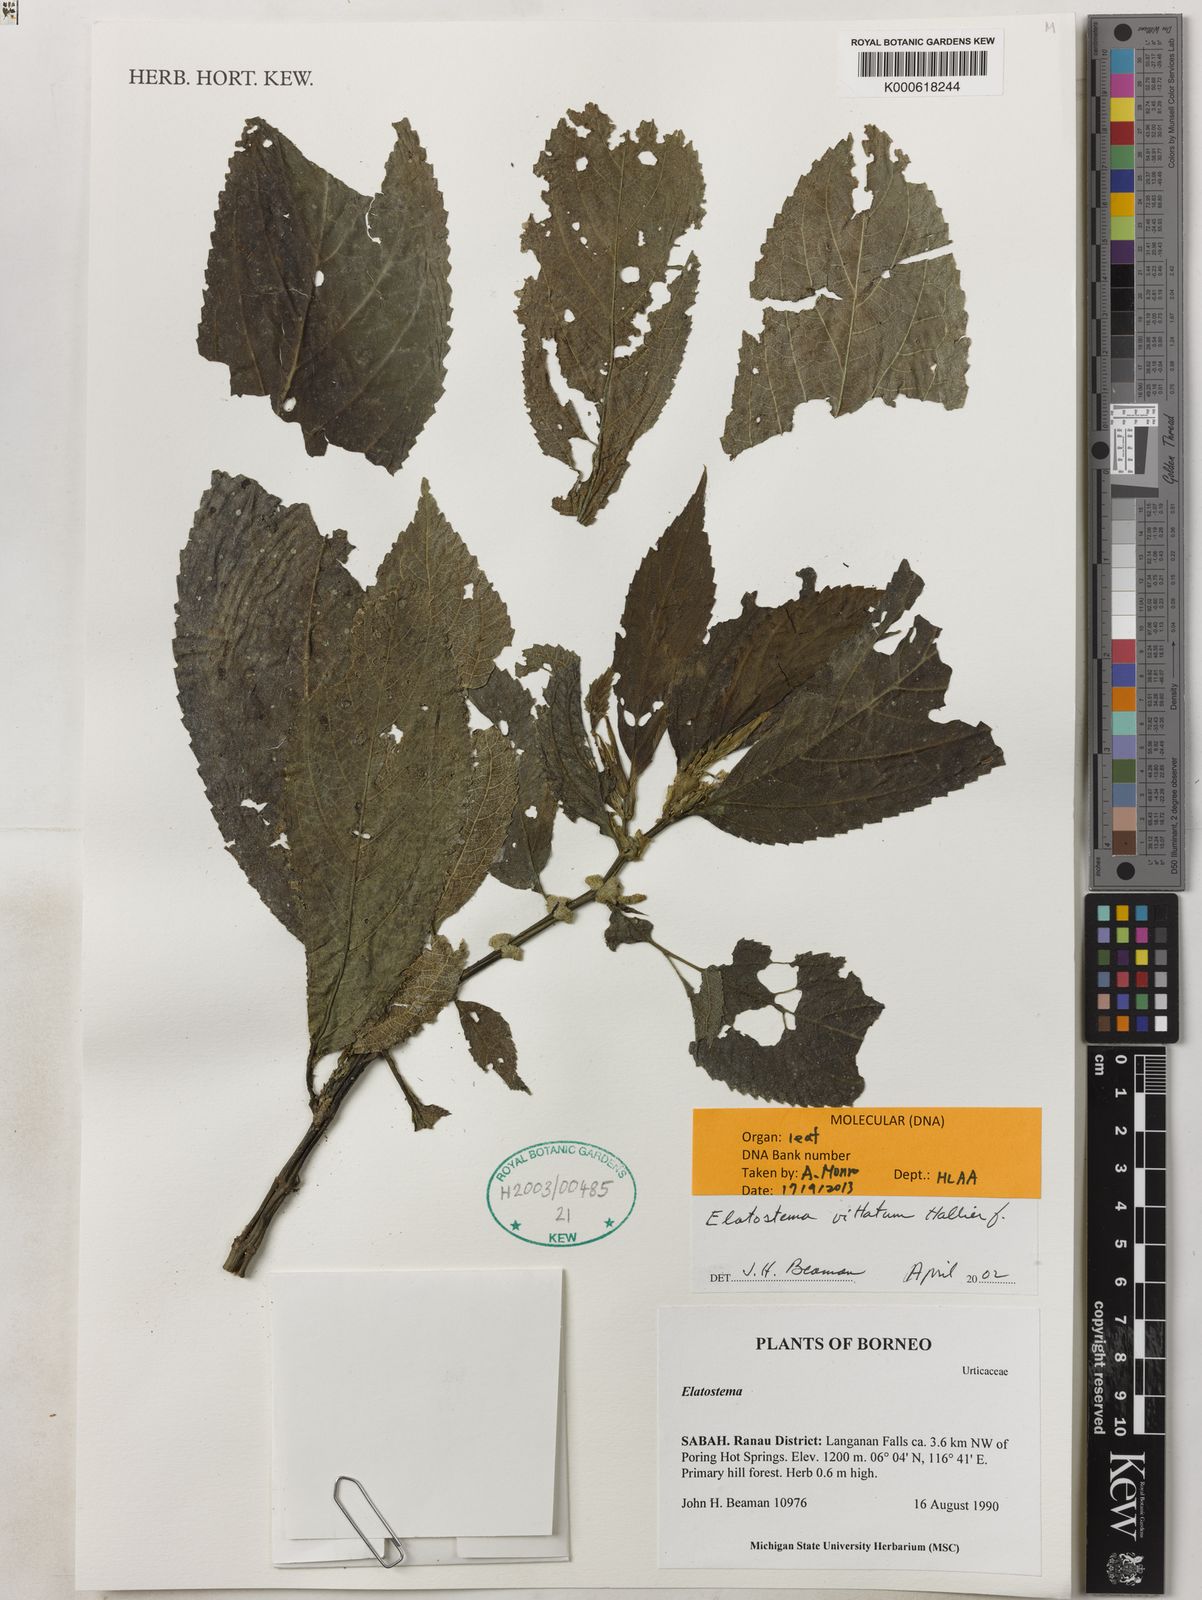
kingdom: Plantae
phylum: Tracheophyta
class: Magnoliopsida
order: Rosales
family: Urticaceae
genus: Elatostematoides
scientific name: Elatostematoides vittatum
